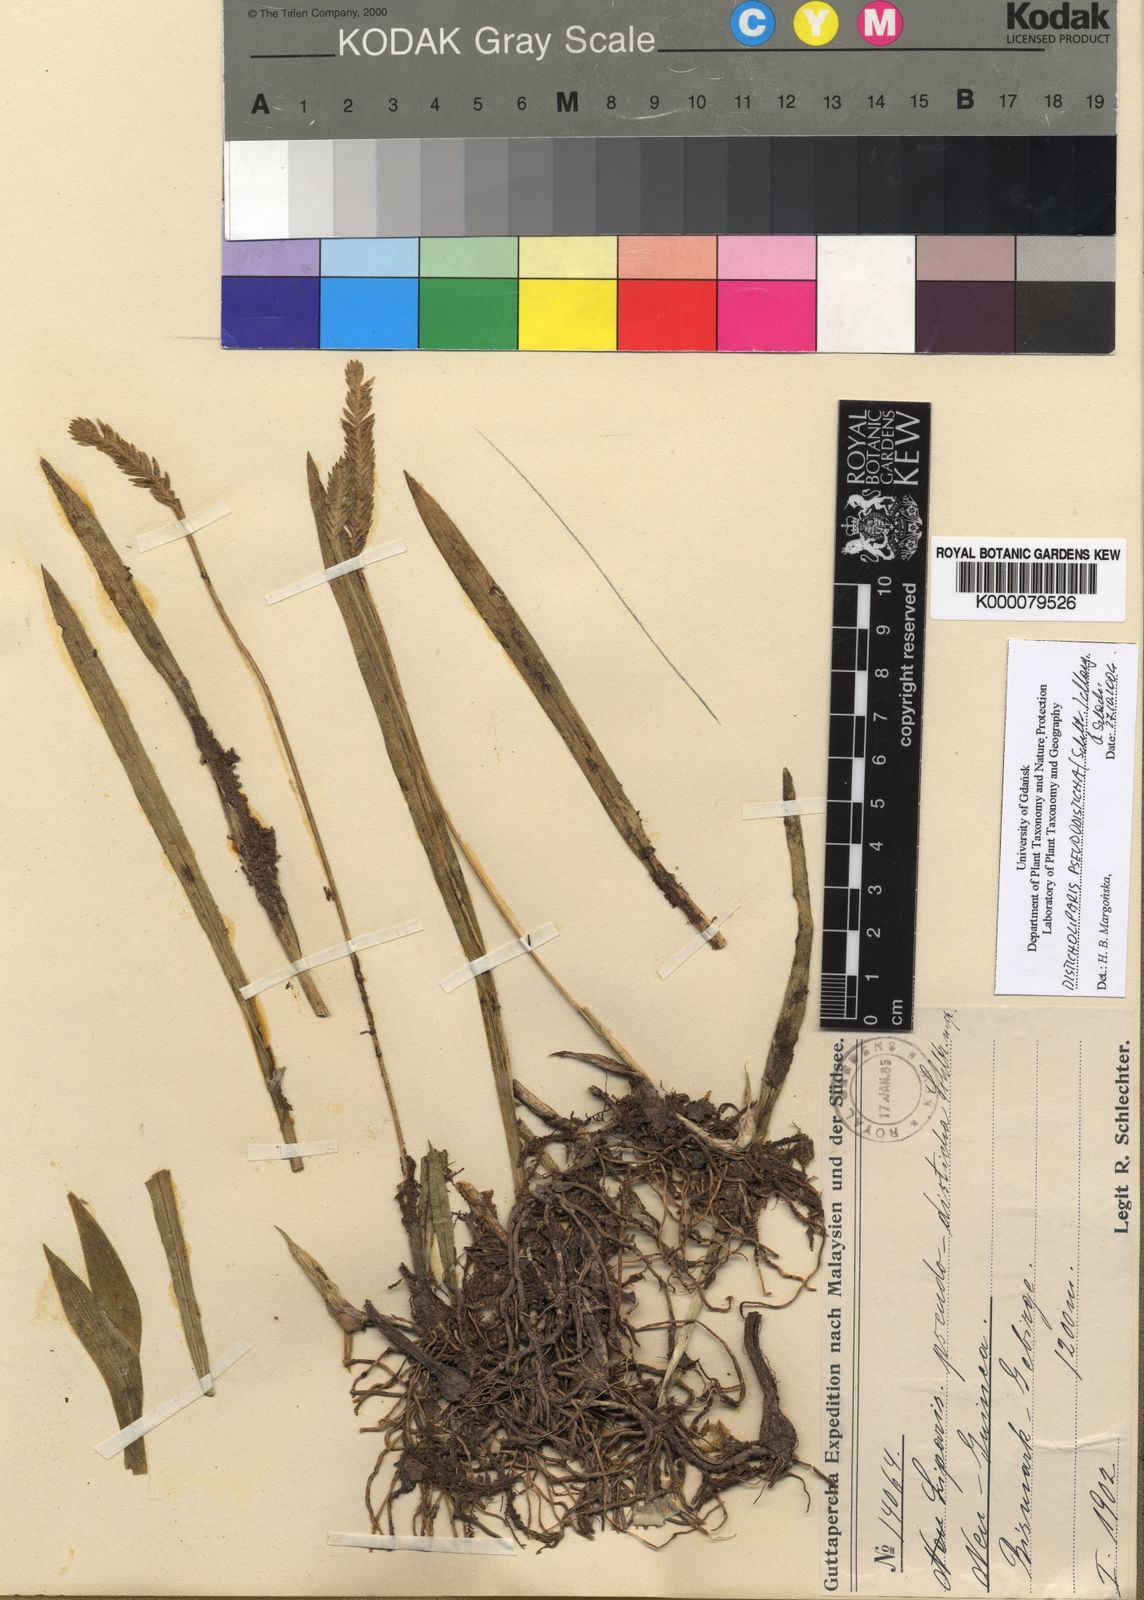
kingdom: Plantae
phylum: Tracheophyta
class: Liliopsida
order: Asparagales
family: Orchidaceae
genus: Liparis
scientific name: Liparis pseudodisticha
